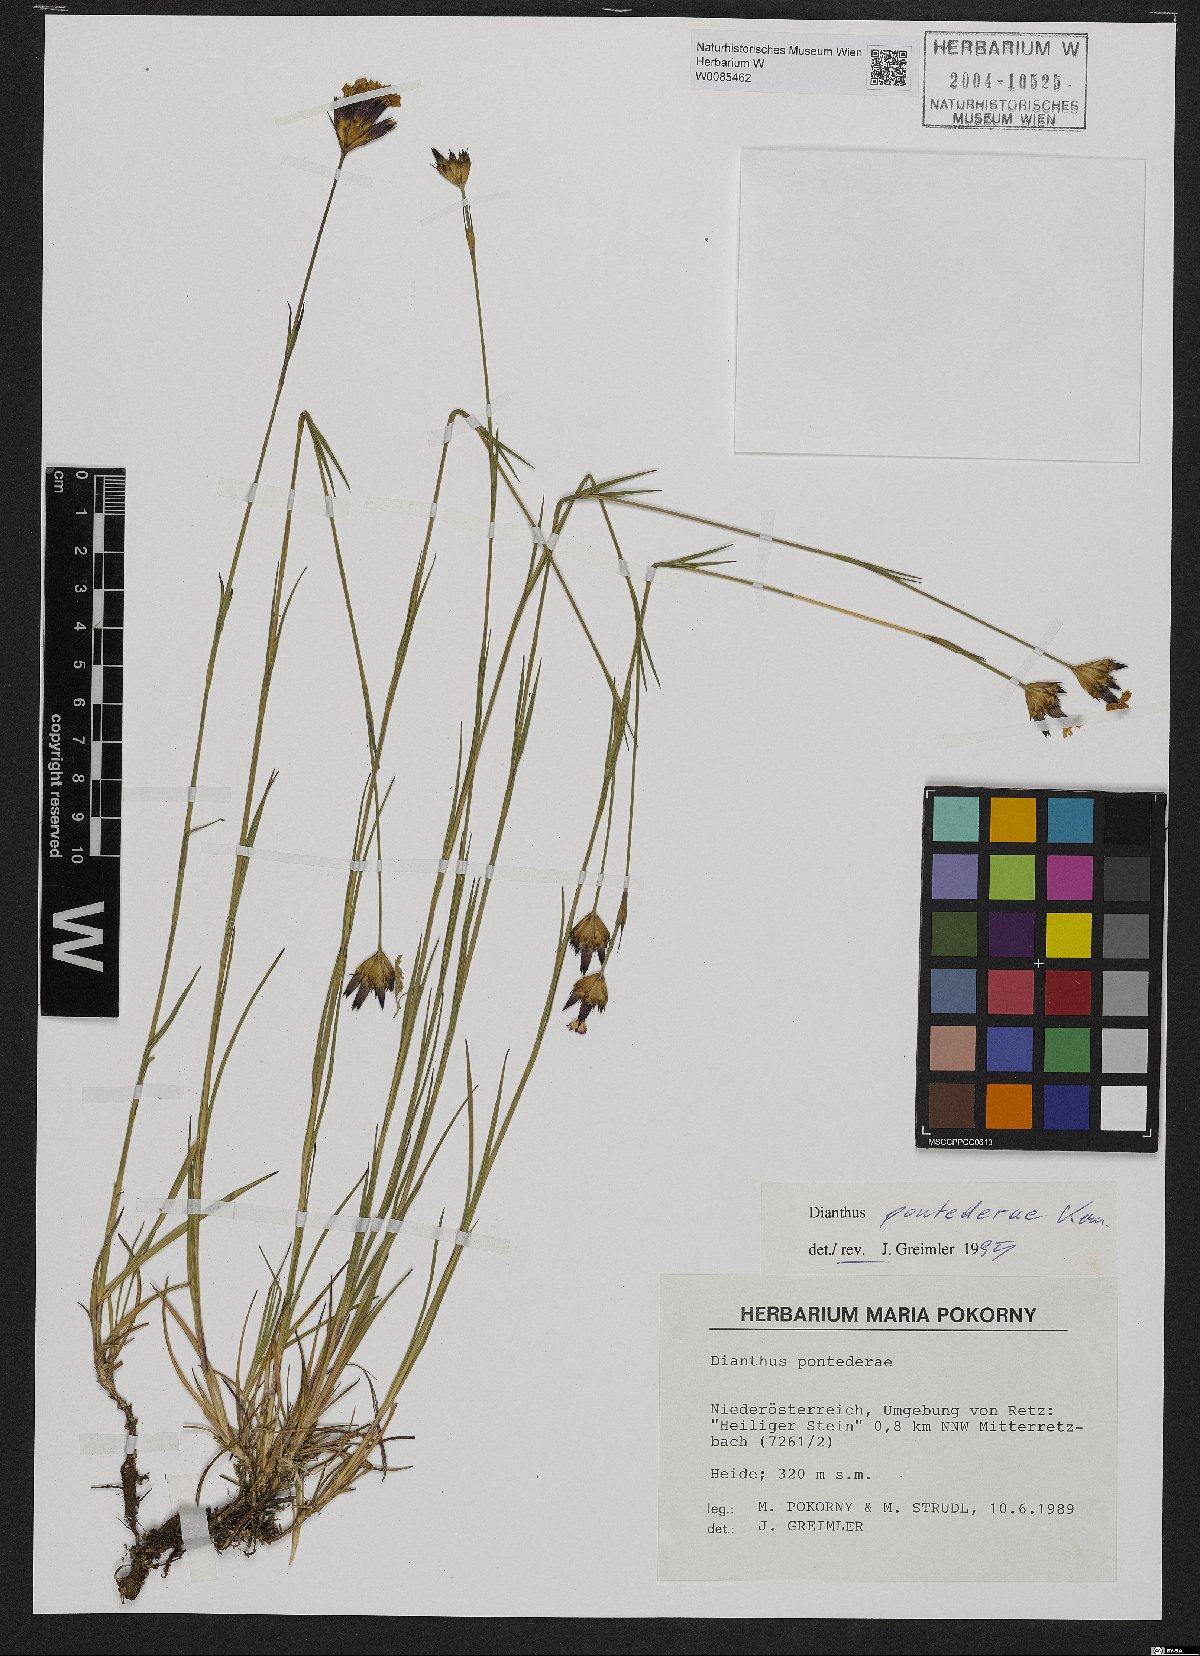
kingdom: Plantae
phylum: Tracheophyta
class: Magnoliopsida
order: Caryophyllales
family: Caryophyllaceae
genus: Dianthus
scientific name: Dianthus pontederae
